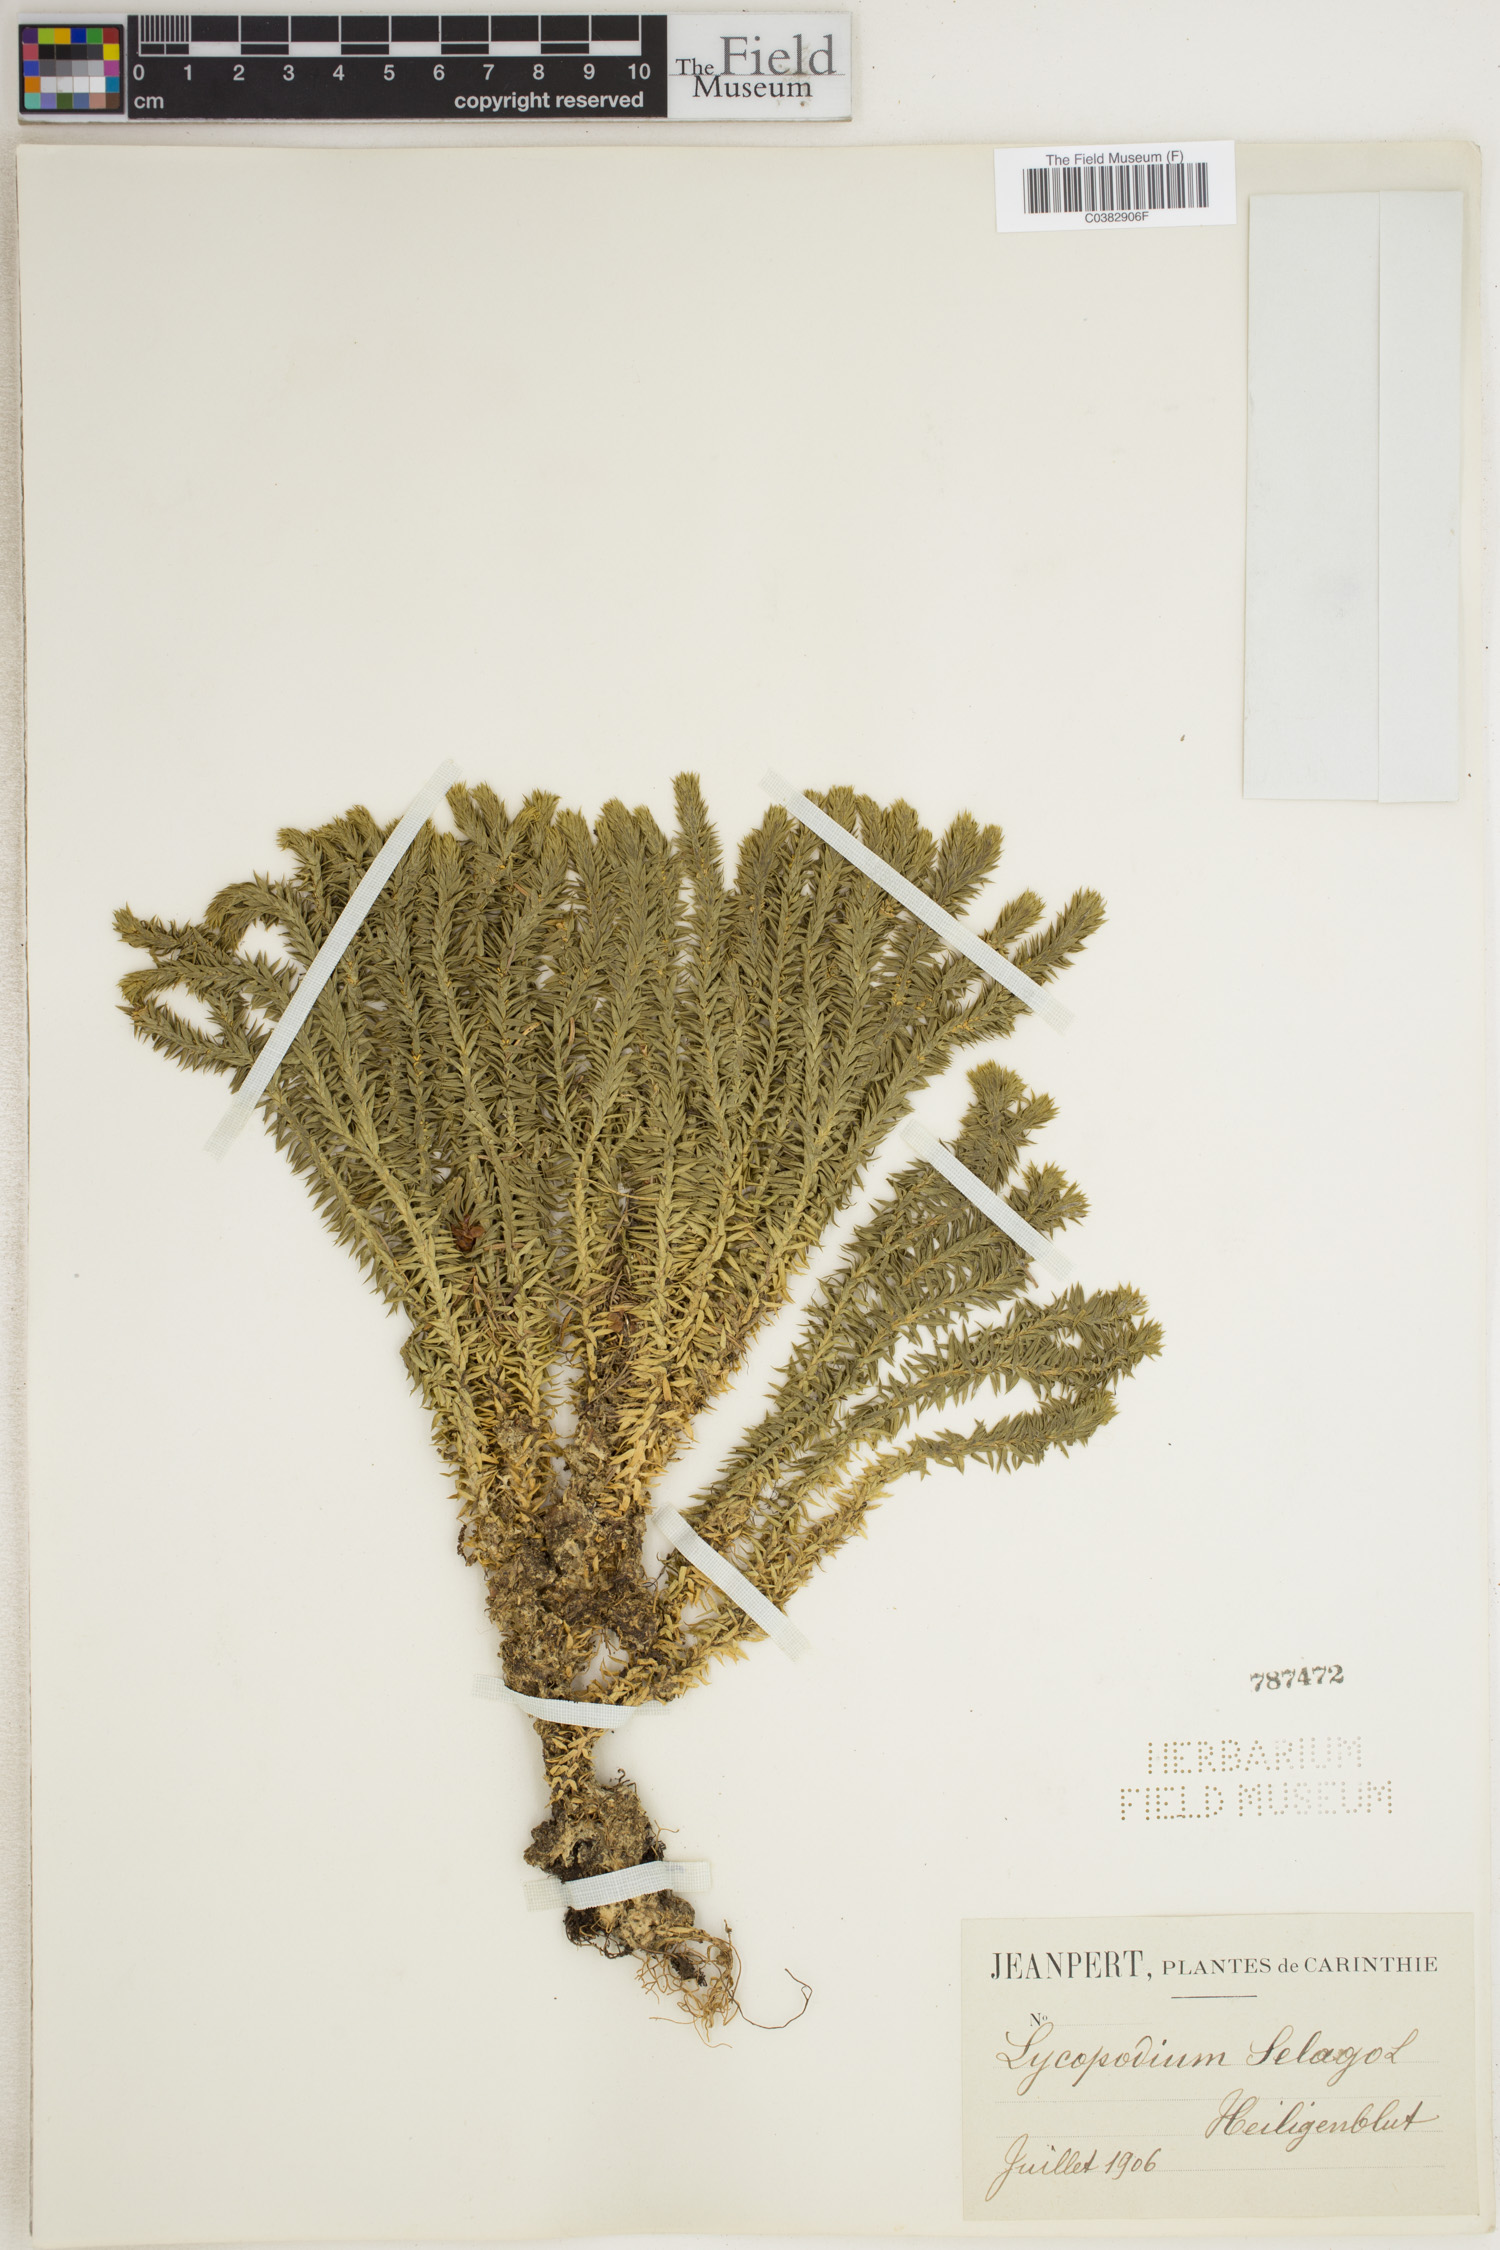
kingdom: Plantae
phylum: Tracheophyta
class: Lycopodiopsida
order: Lycopodiales
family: Lycopodiaceae
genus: Huperzia
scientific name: Huperzia selago
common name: Northern firmoss
